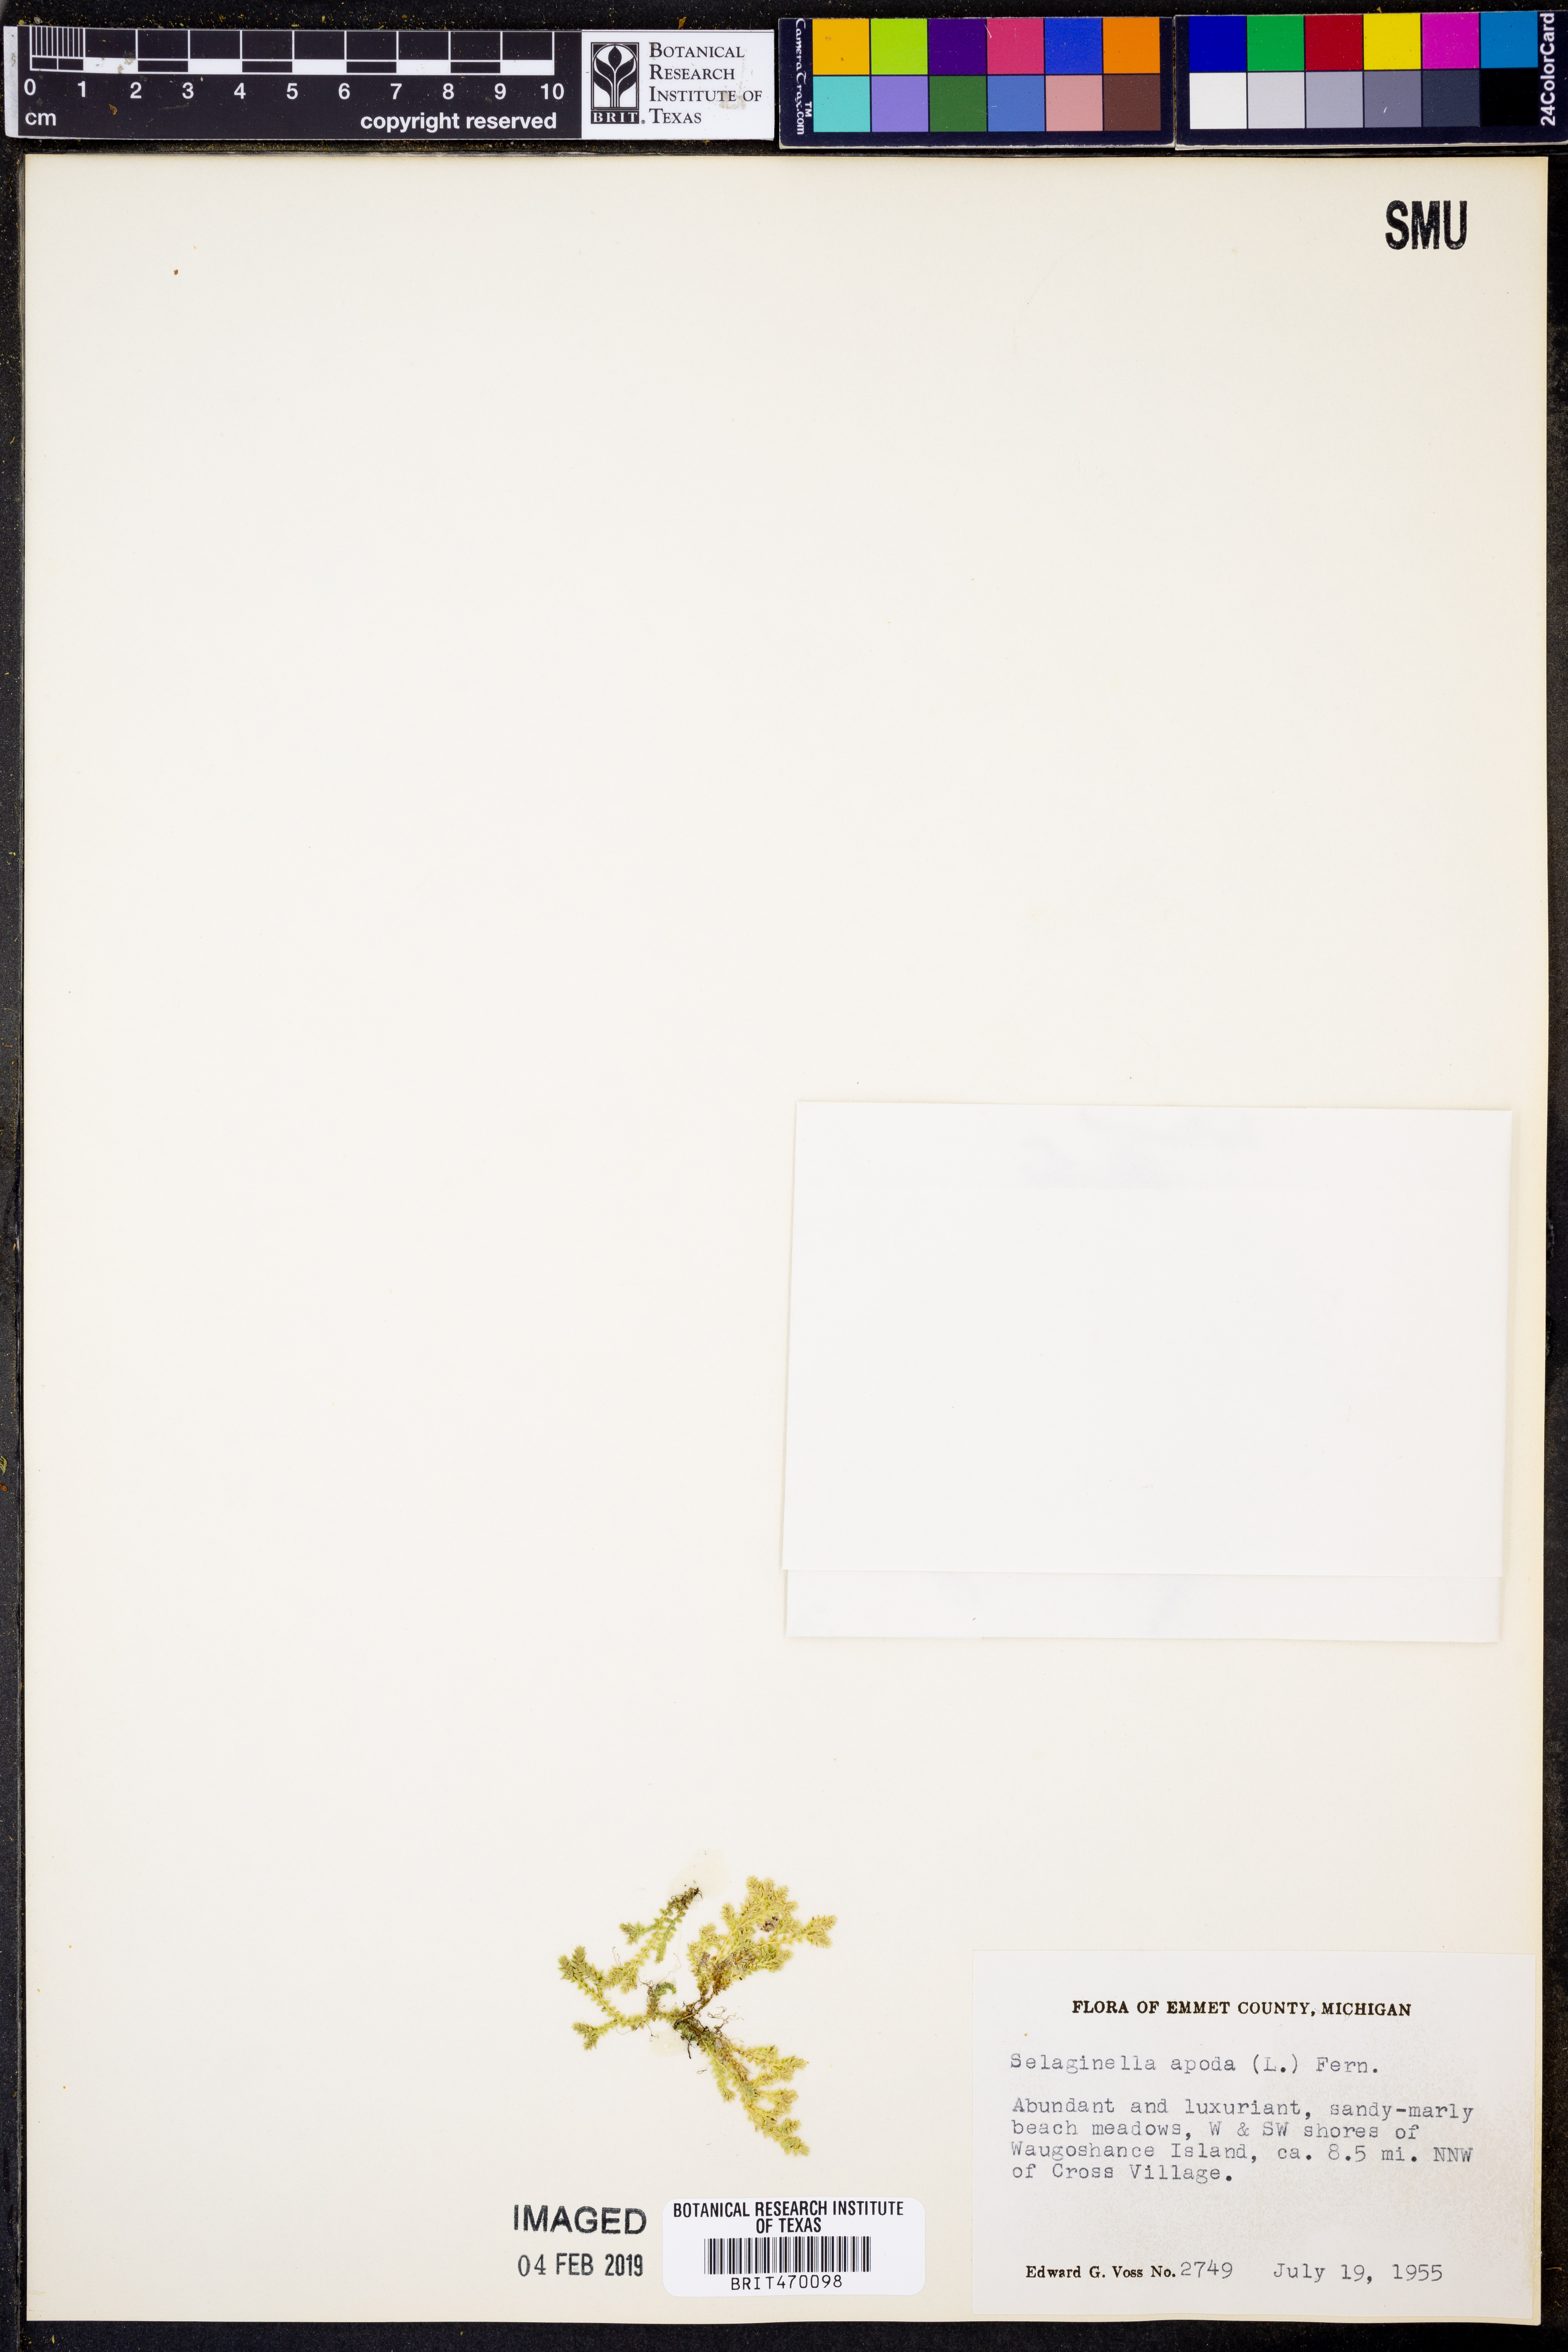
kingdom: Plantae
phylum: Tracheophyta
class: Lycopodiopsida
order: Selaginellales
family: Selaginellaceae
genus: Selaginella
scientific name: Selaginella apoda
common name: Creeping spikemoss
